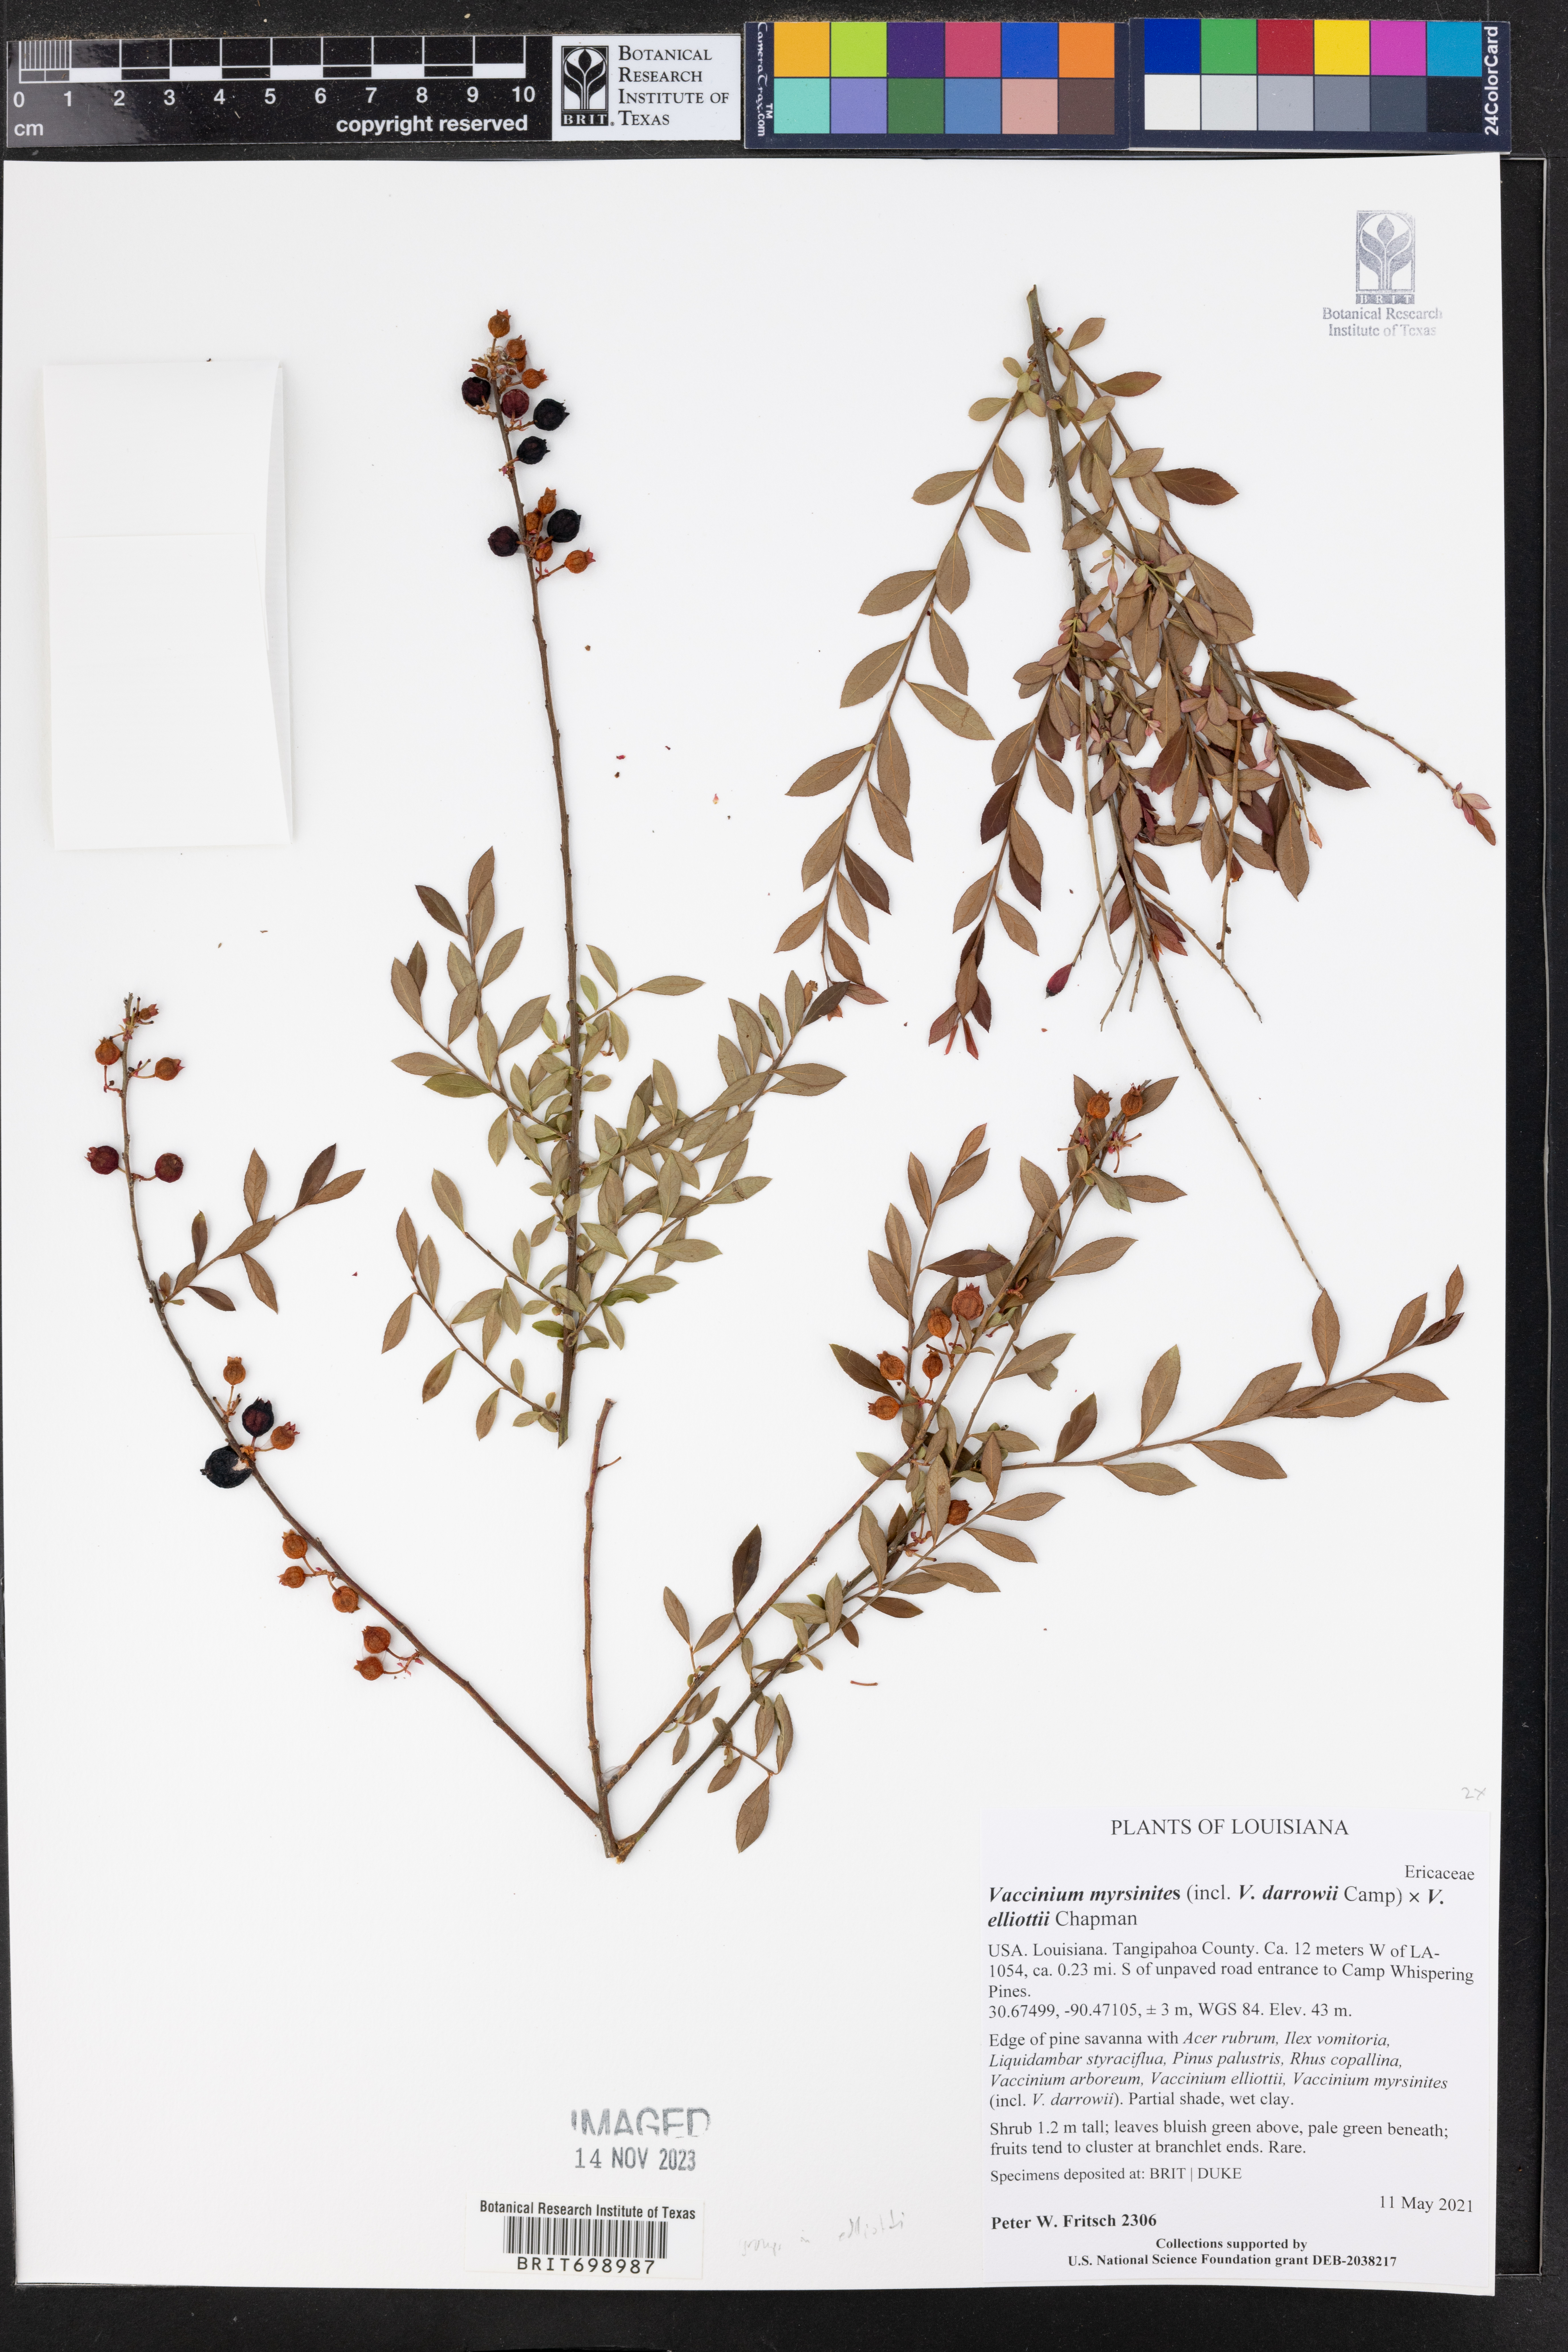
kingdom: Plantae
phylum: Tracheophyta
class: Magnoliopsida
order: Ericales
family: Ericaceae
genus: Vaccinium
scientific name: Vaccinium myrsinites
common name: Evergreen blueberry
